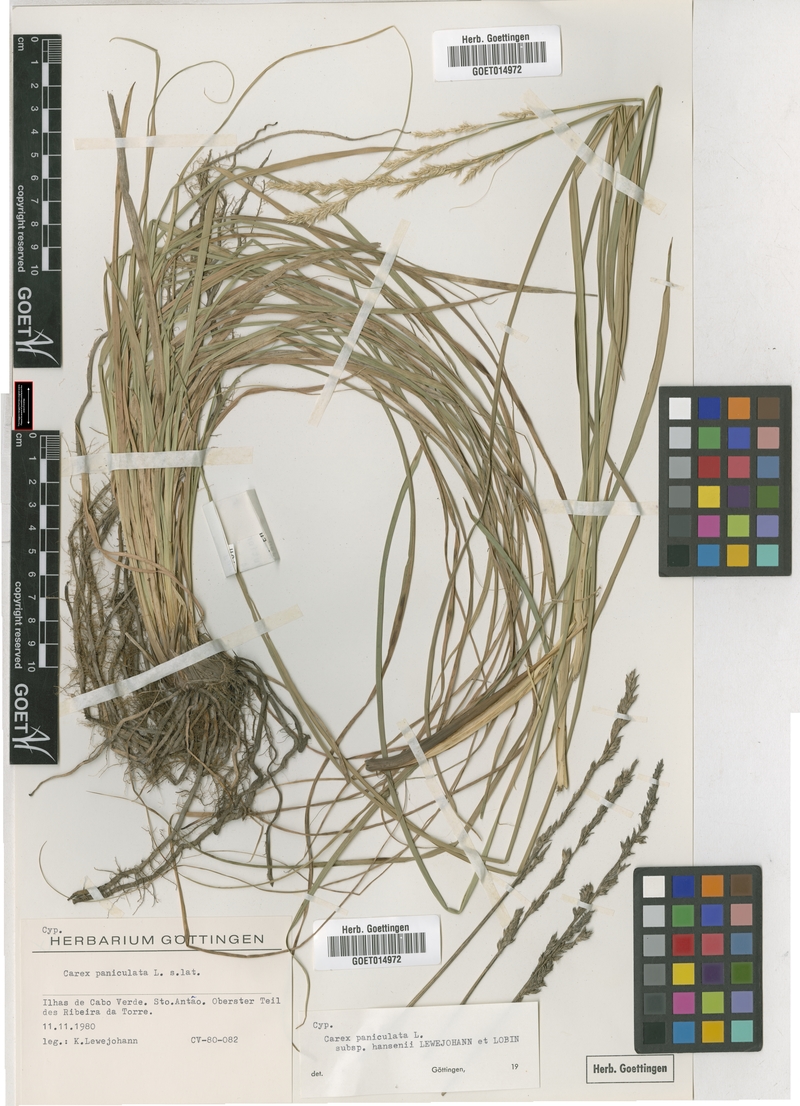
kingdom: Plantae
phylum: Tracheophyta
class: Liliopsida
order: Poales
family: Cyperaceae
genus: Carex
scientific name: Carex hansenii
